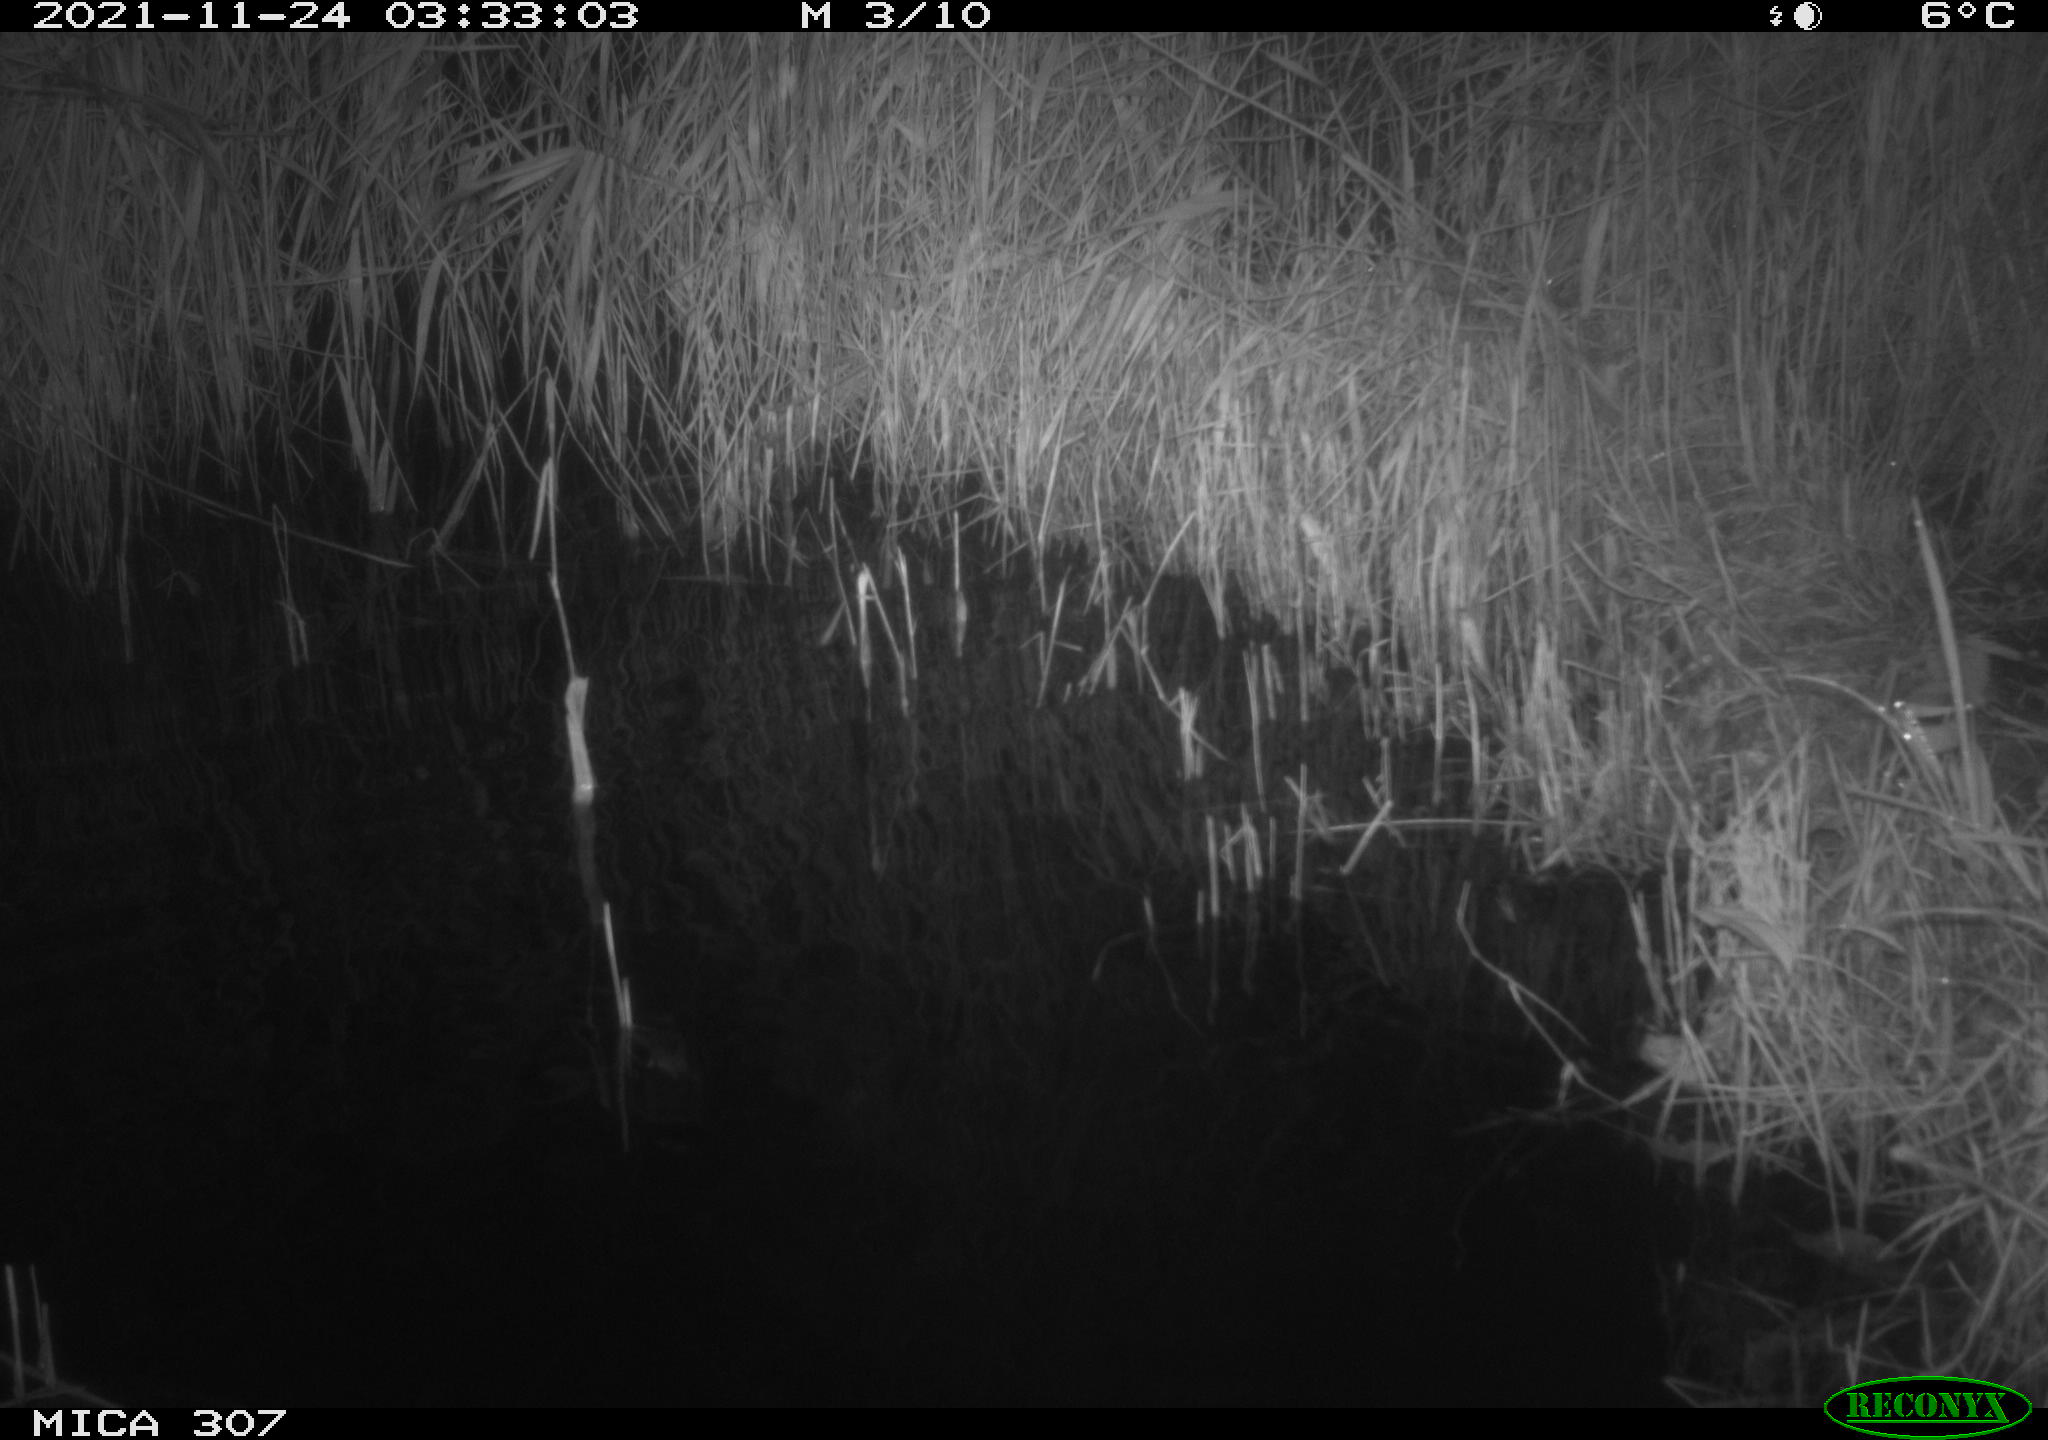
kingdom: Animalia
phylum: Chordata
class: Mammalia
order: Rodentia
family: Muridae
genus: Rattus
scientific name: Rattus norvegicus
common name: Brown rat
